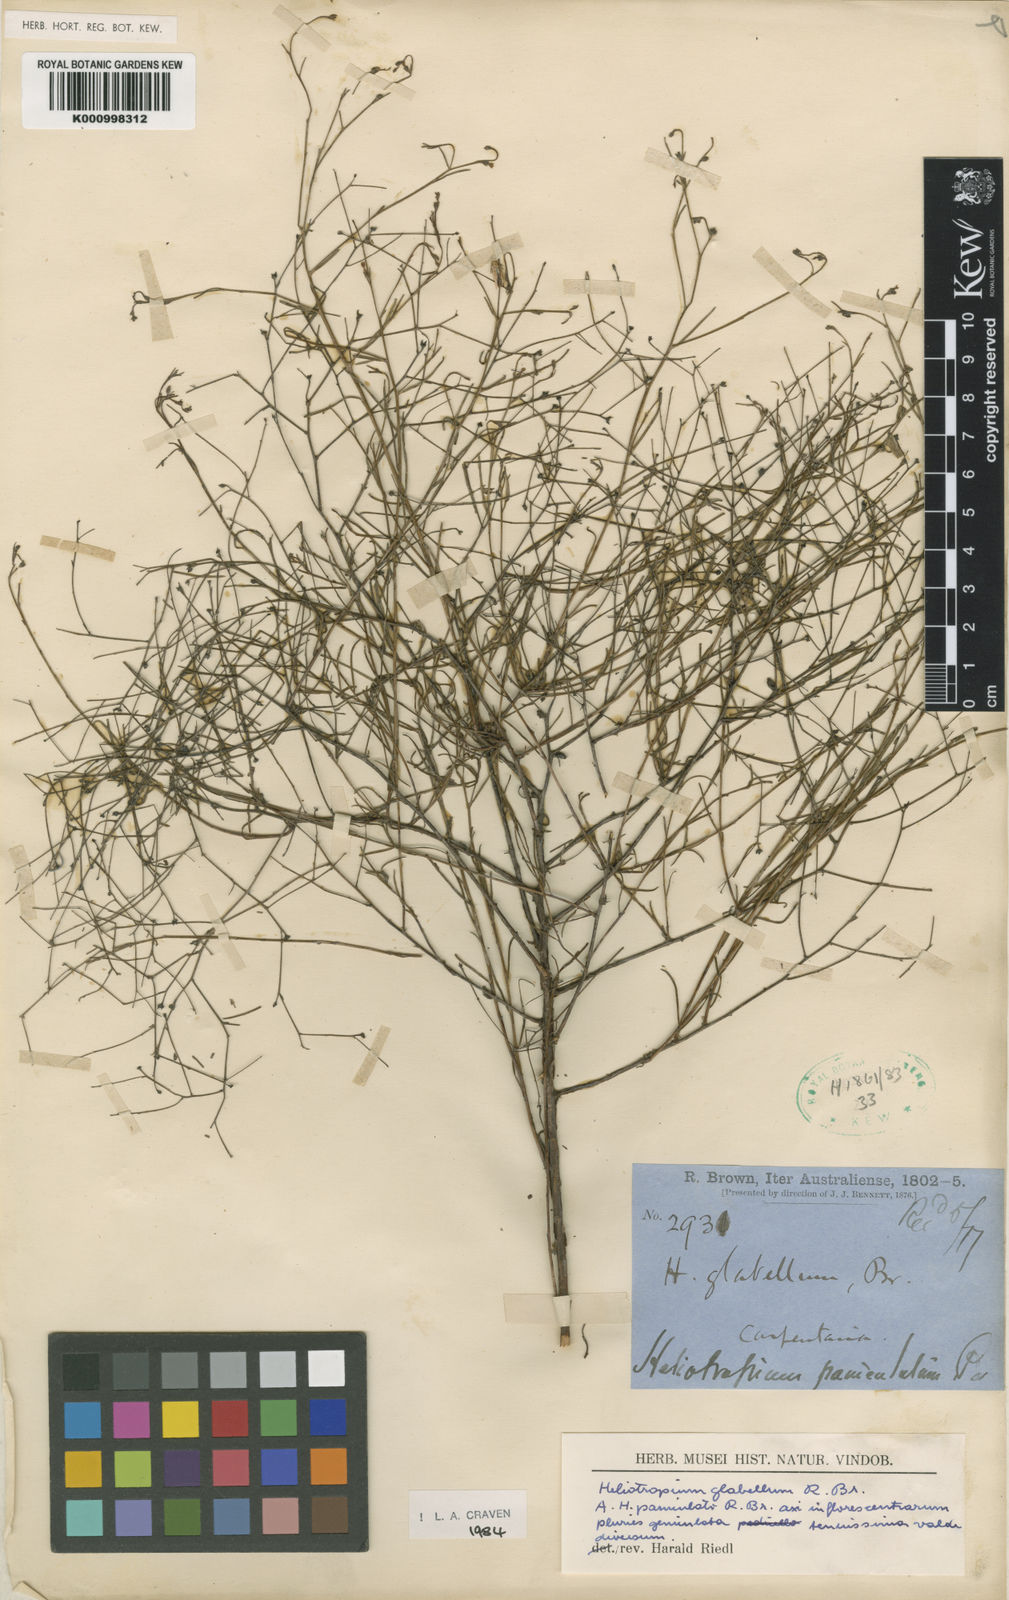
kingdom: Plantae
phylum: Tracheophyta
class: Magnoliopsida
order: Boraginales
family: Heliotropiaceae
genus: Euploca
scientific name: Euploca glabella
